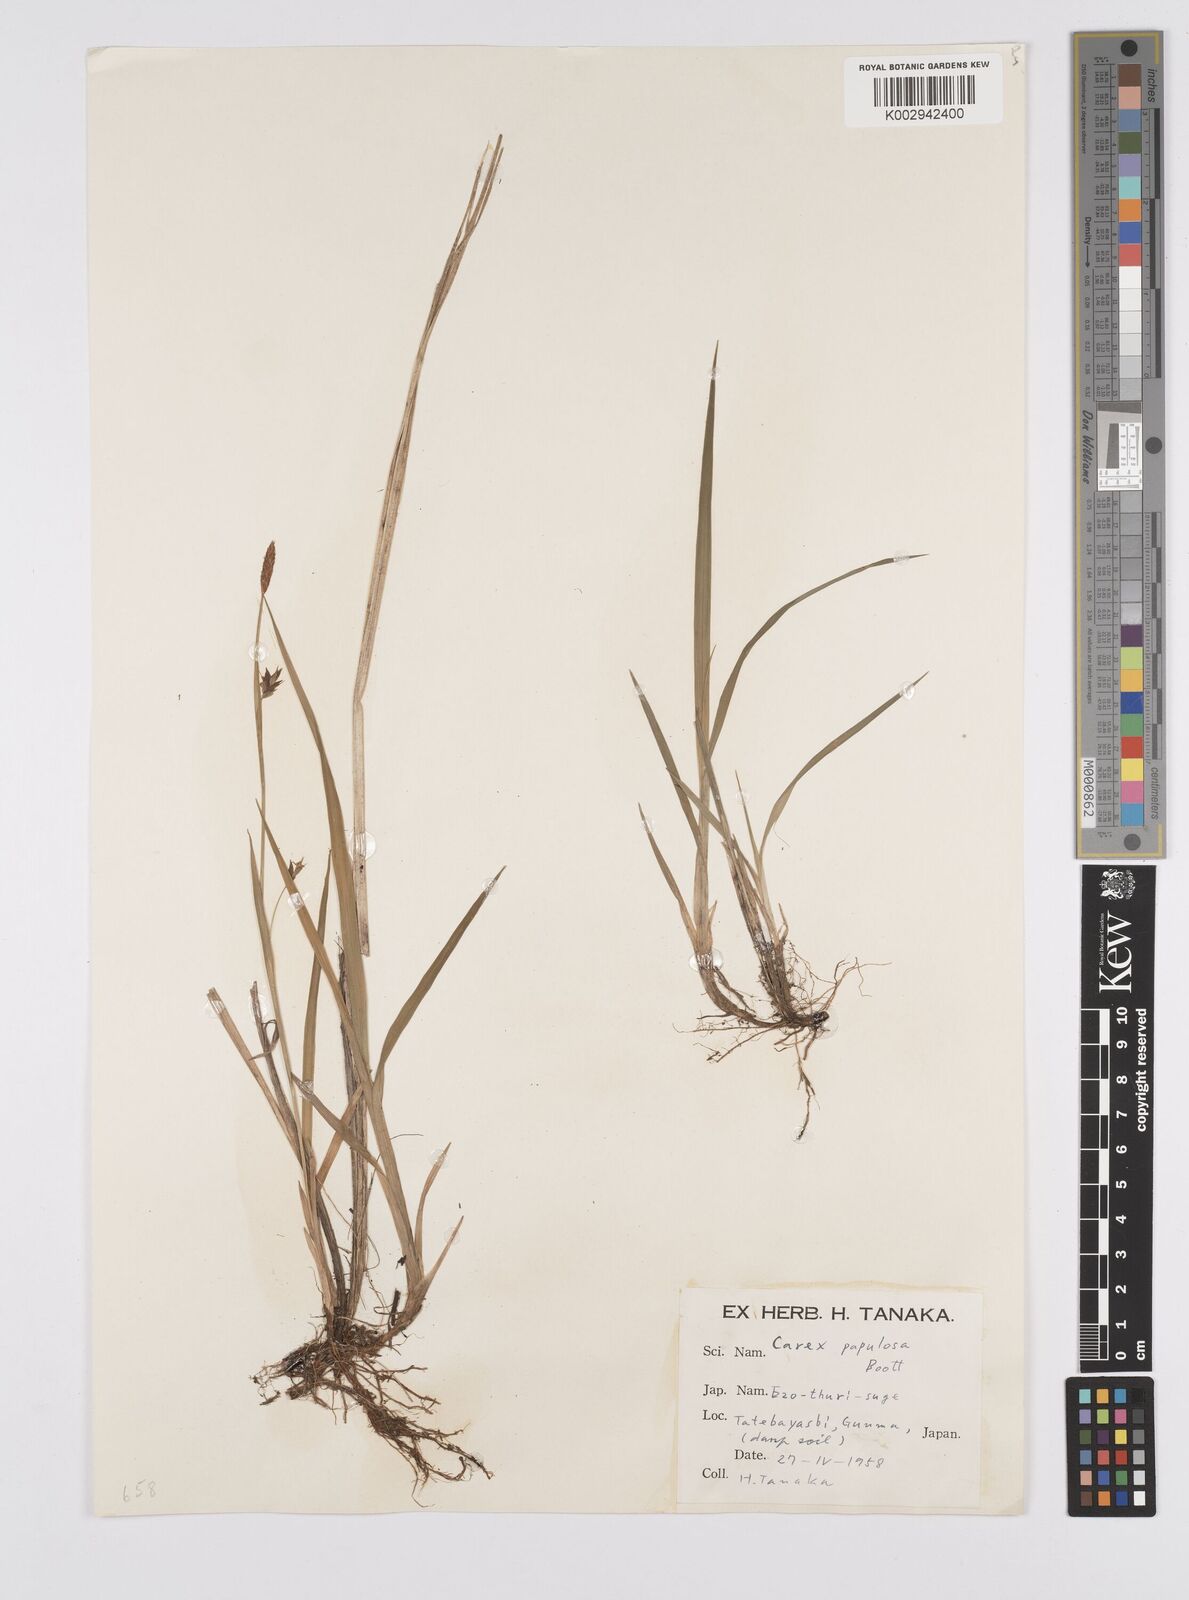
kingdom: Plantae
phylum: Tracheophyta
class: Liliopsida
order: Poales
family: Cyperaceae
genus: Carex
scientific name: Carex papulosa
